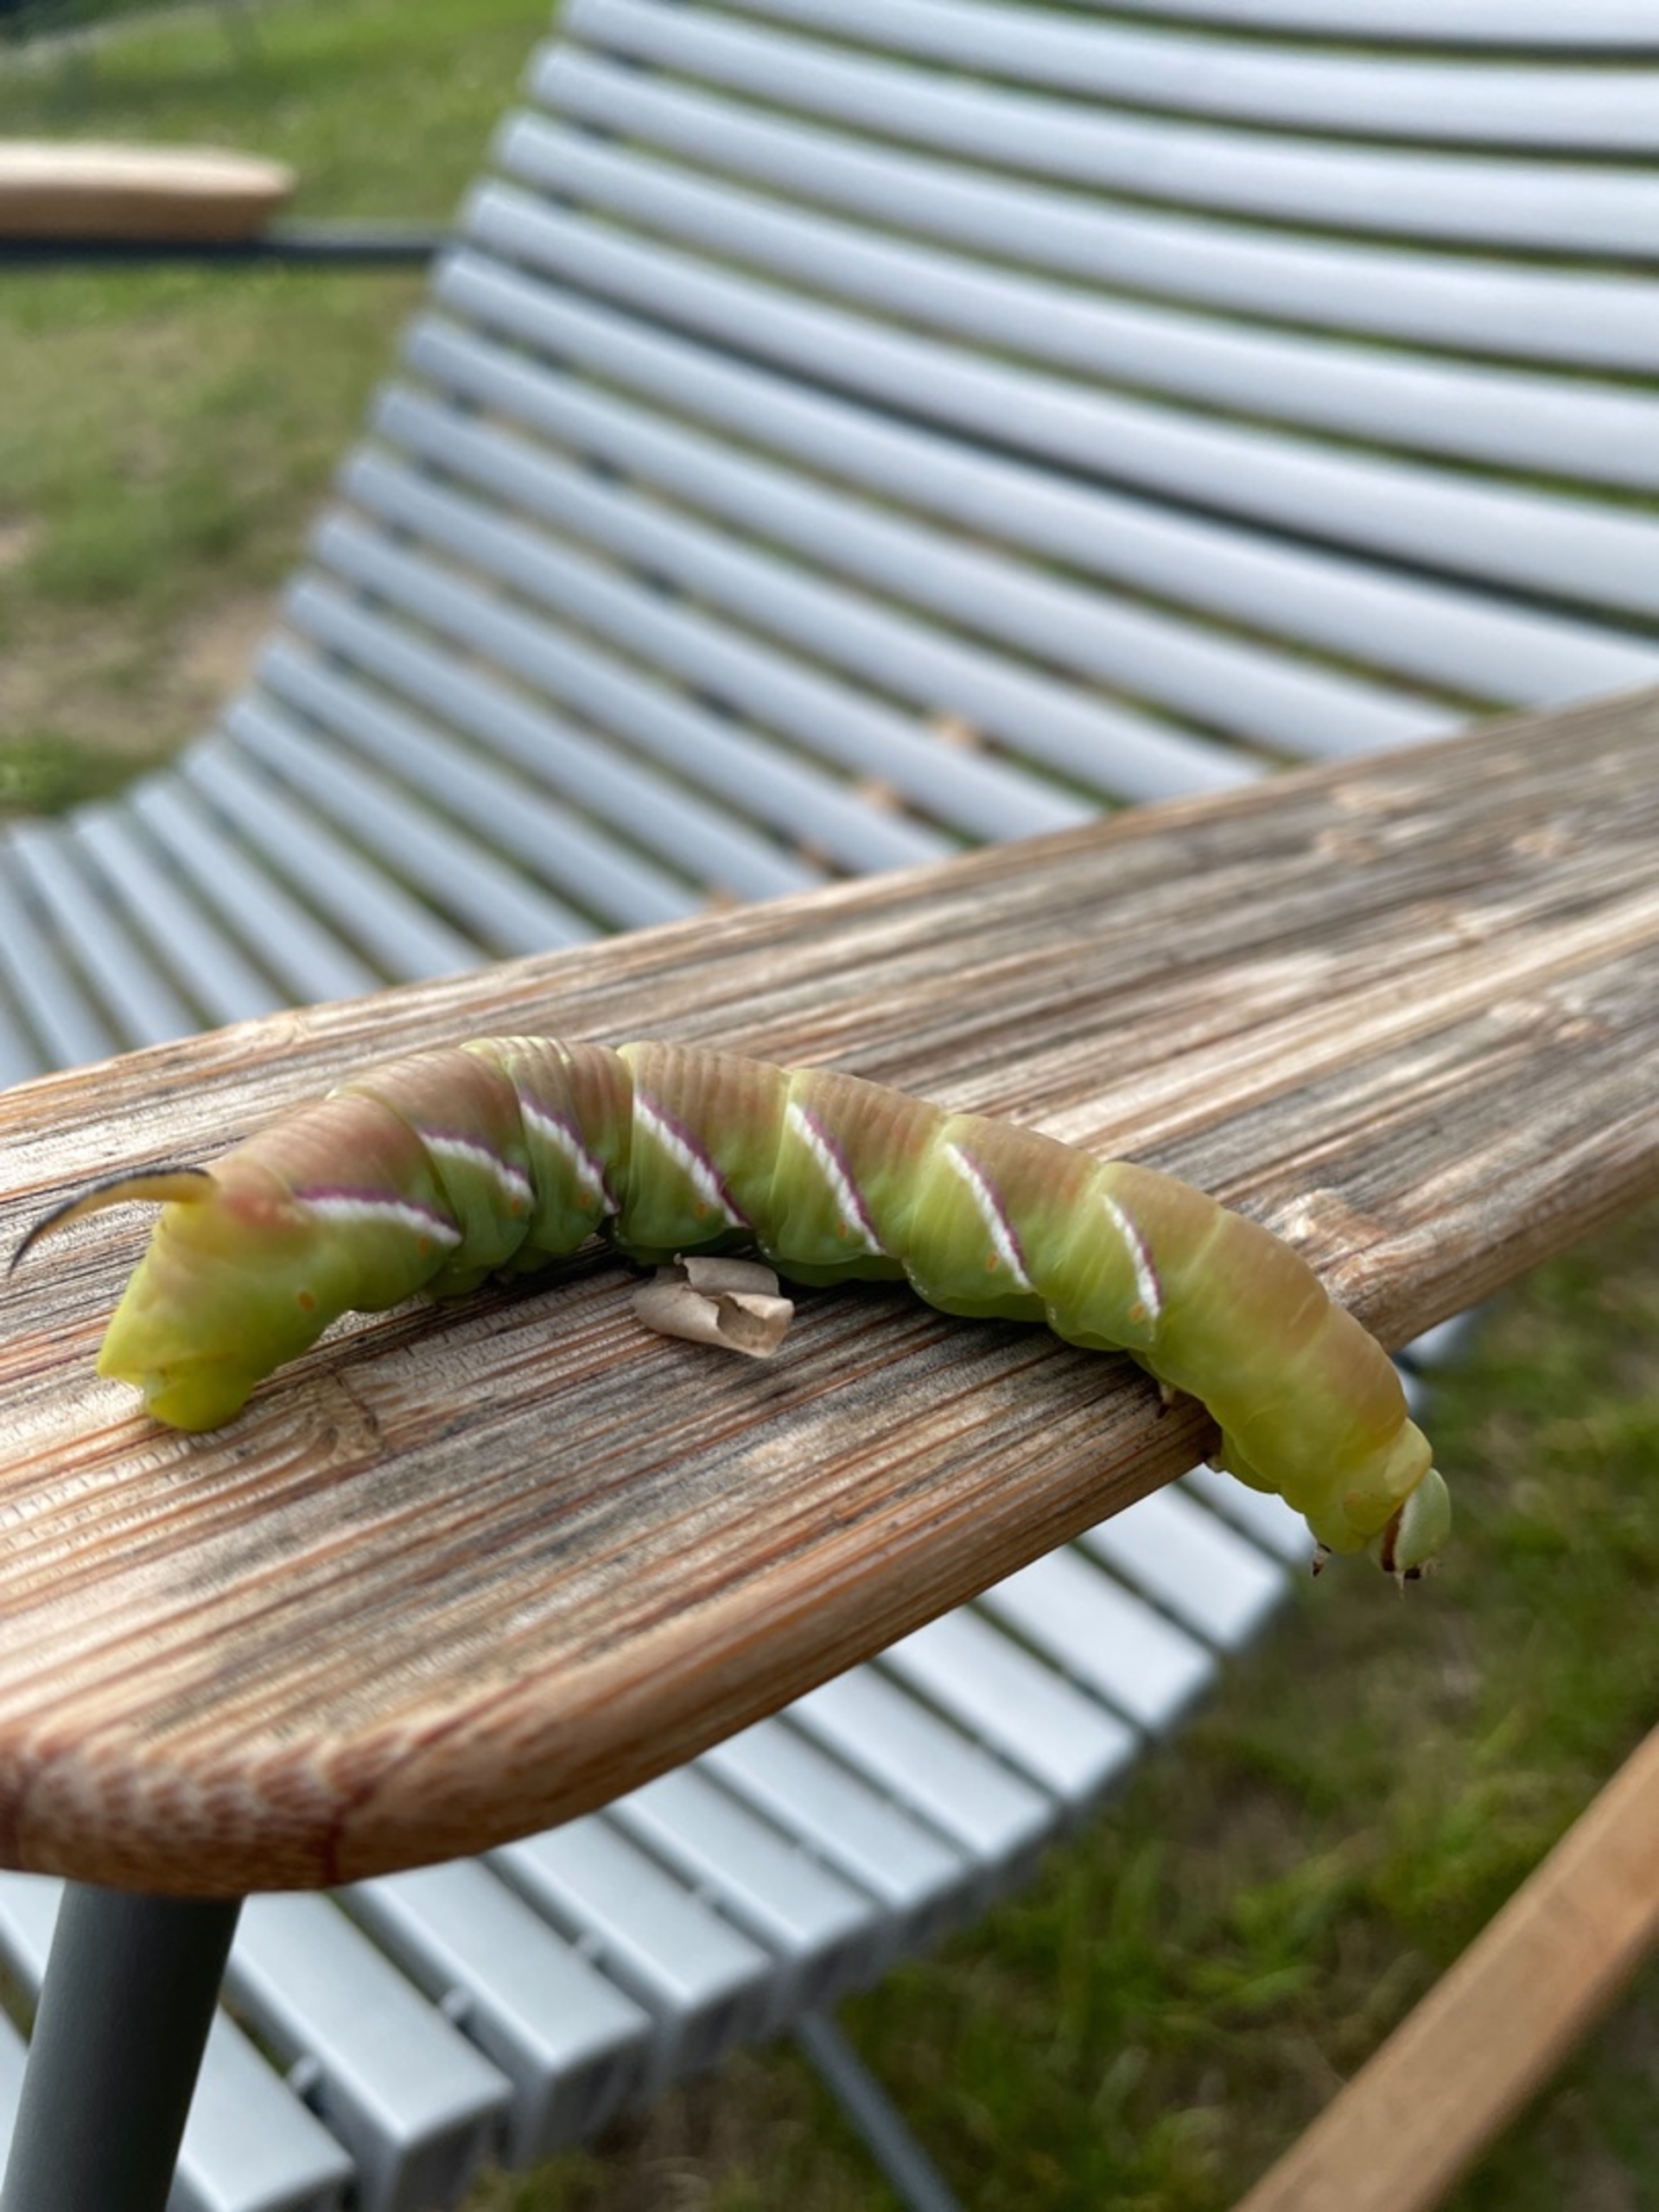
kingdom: Animalia
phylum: Arthropoda
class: Insecta
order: Lepidoptera
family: Sphingidae
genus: Sphinx
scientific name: Sphinx ligustri
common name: Ligustersværmer
